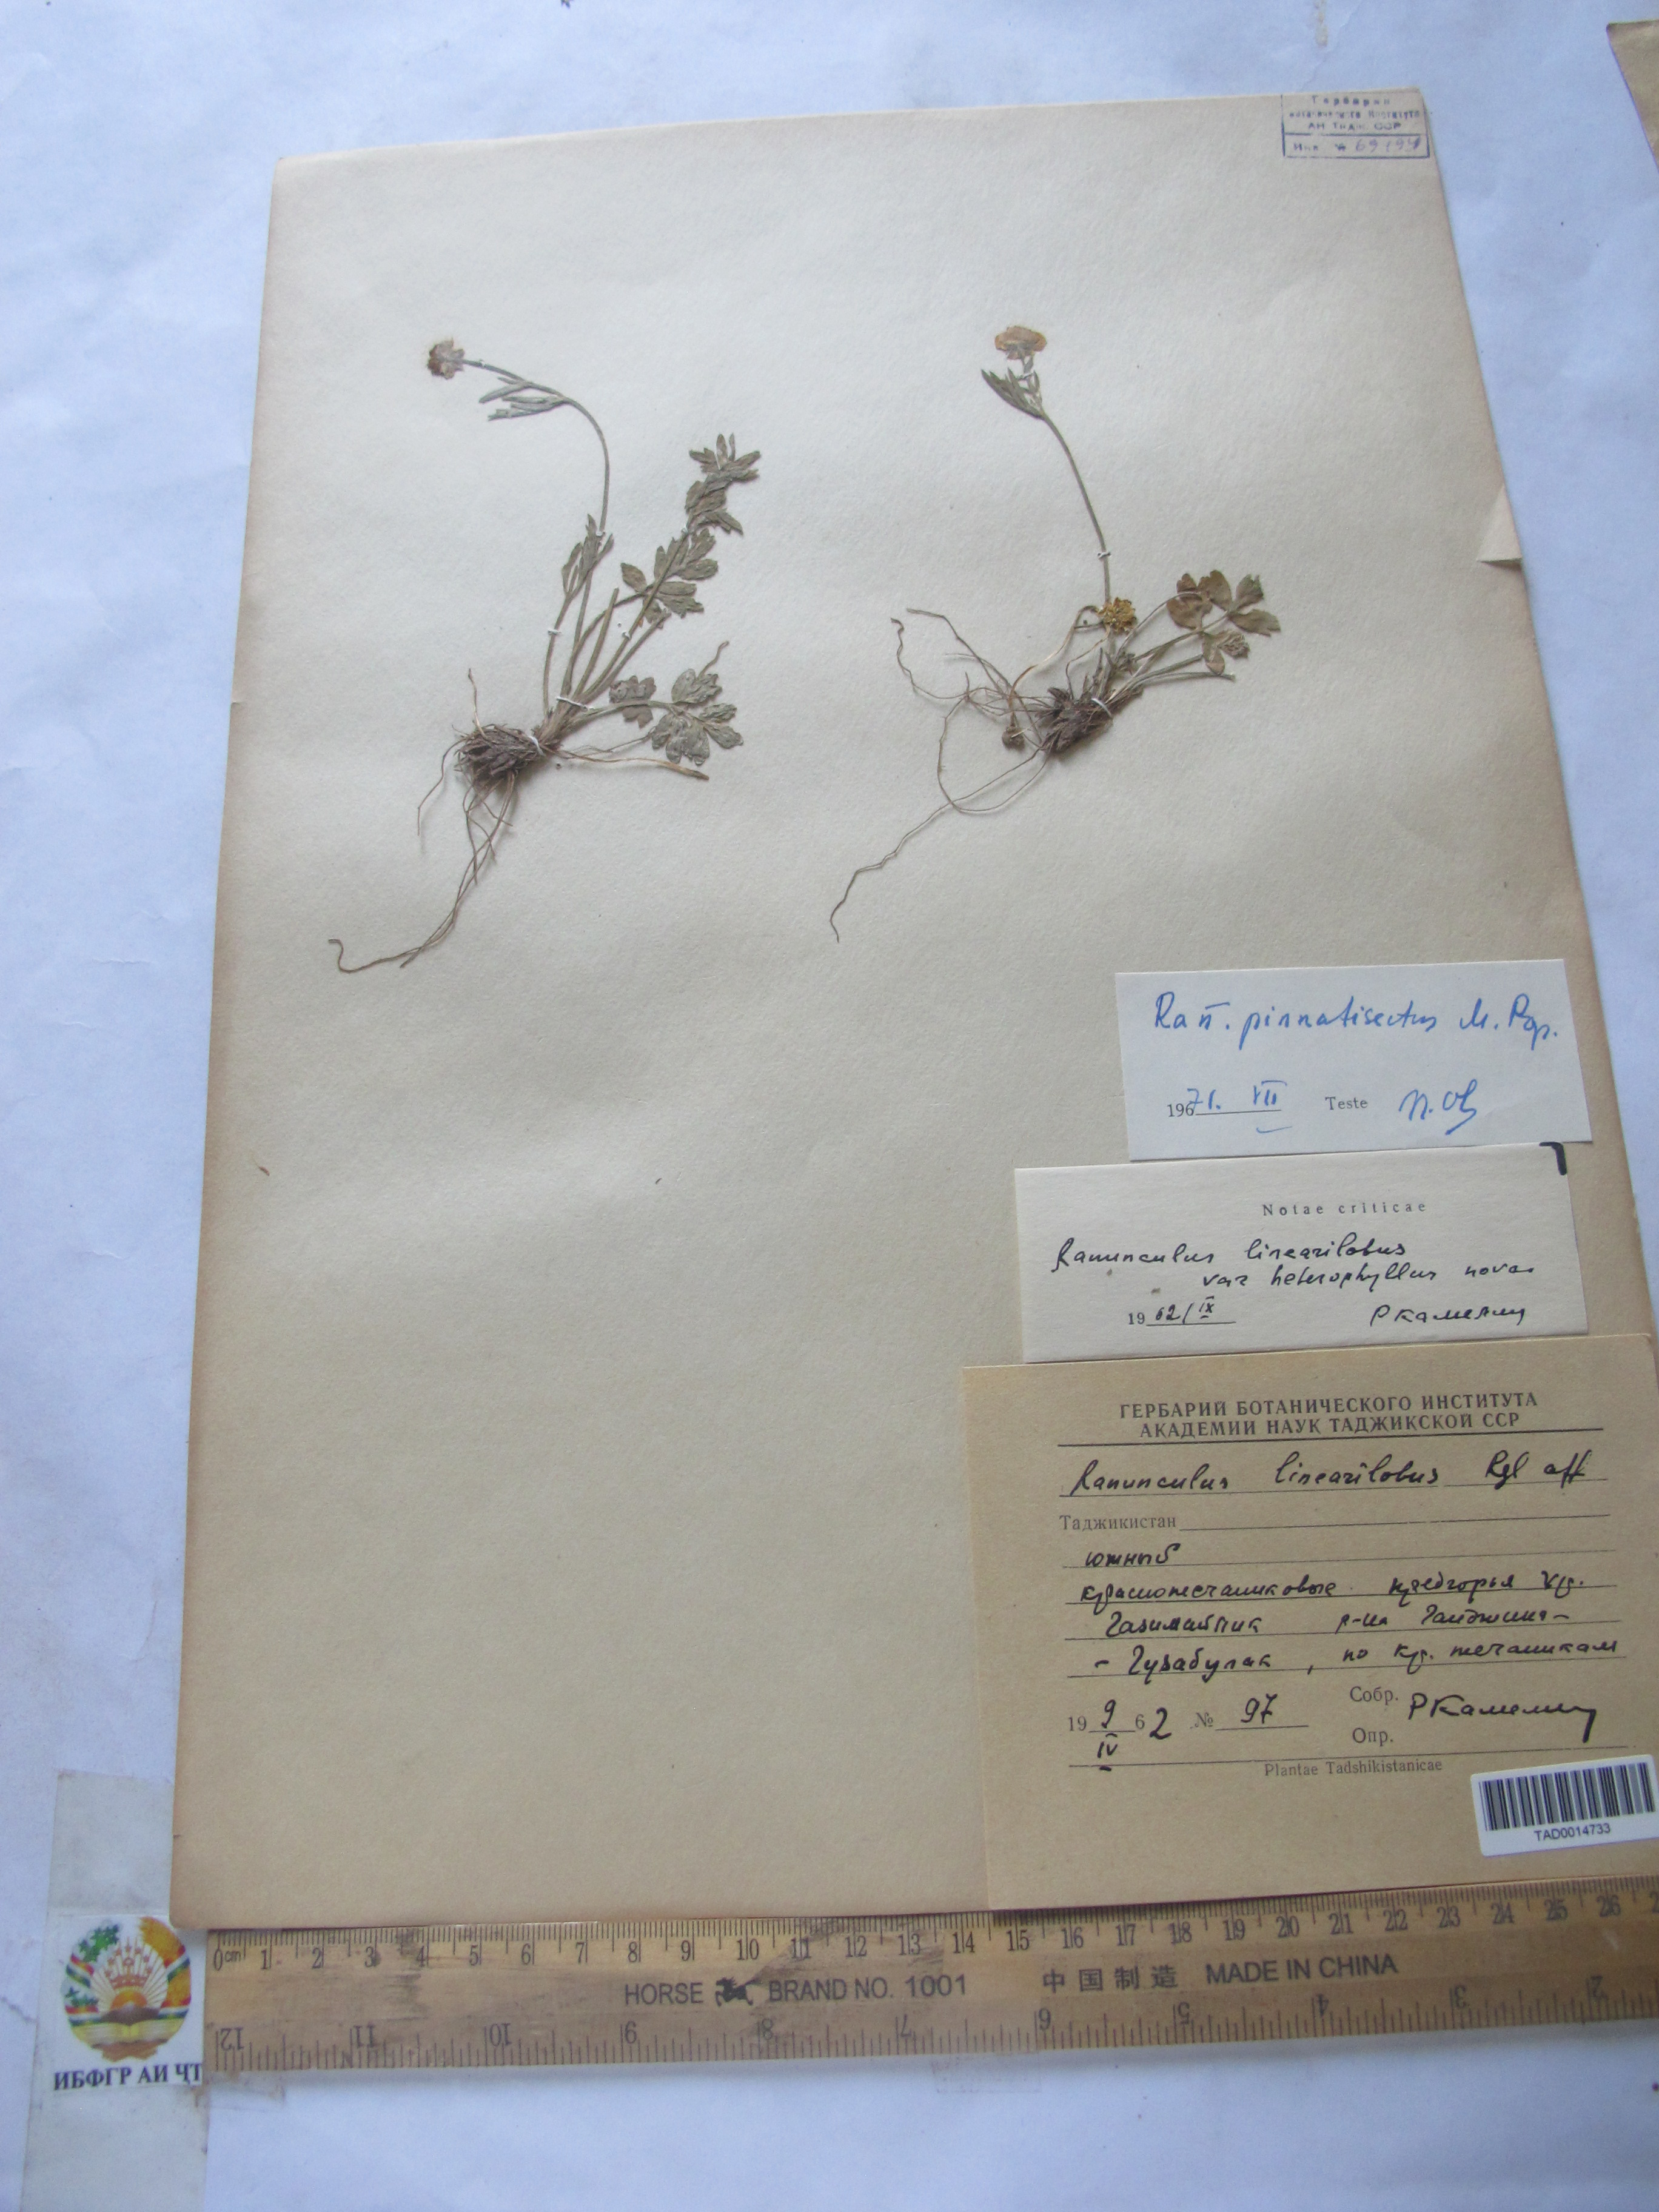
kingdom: Plantae
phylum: Tracheophyta
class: Magnoliopsida
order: Ranunculales
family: Ranunculaceae
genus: Ranunculus
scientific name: Ranunculus linearilobus
